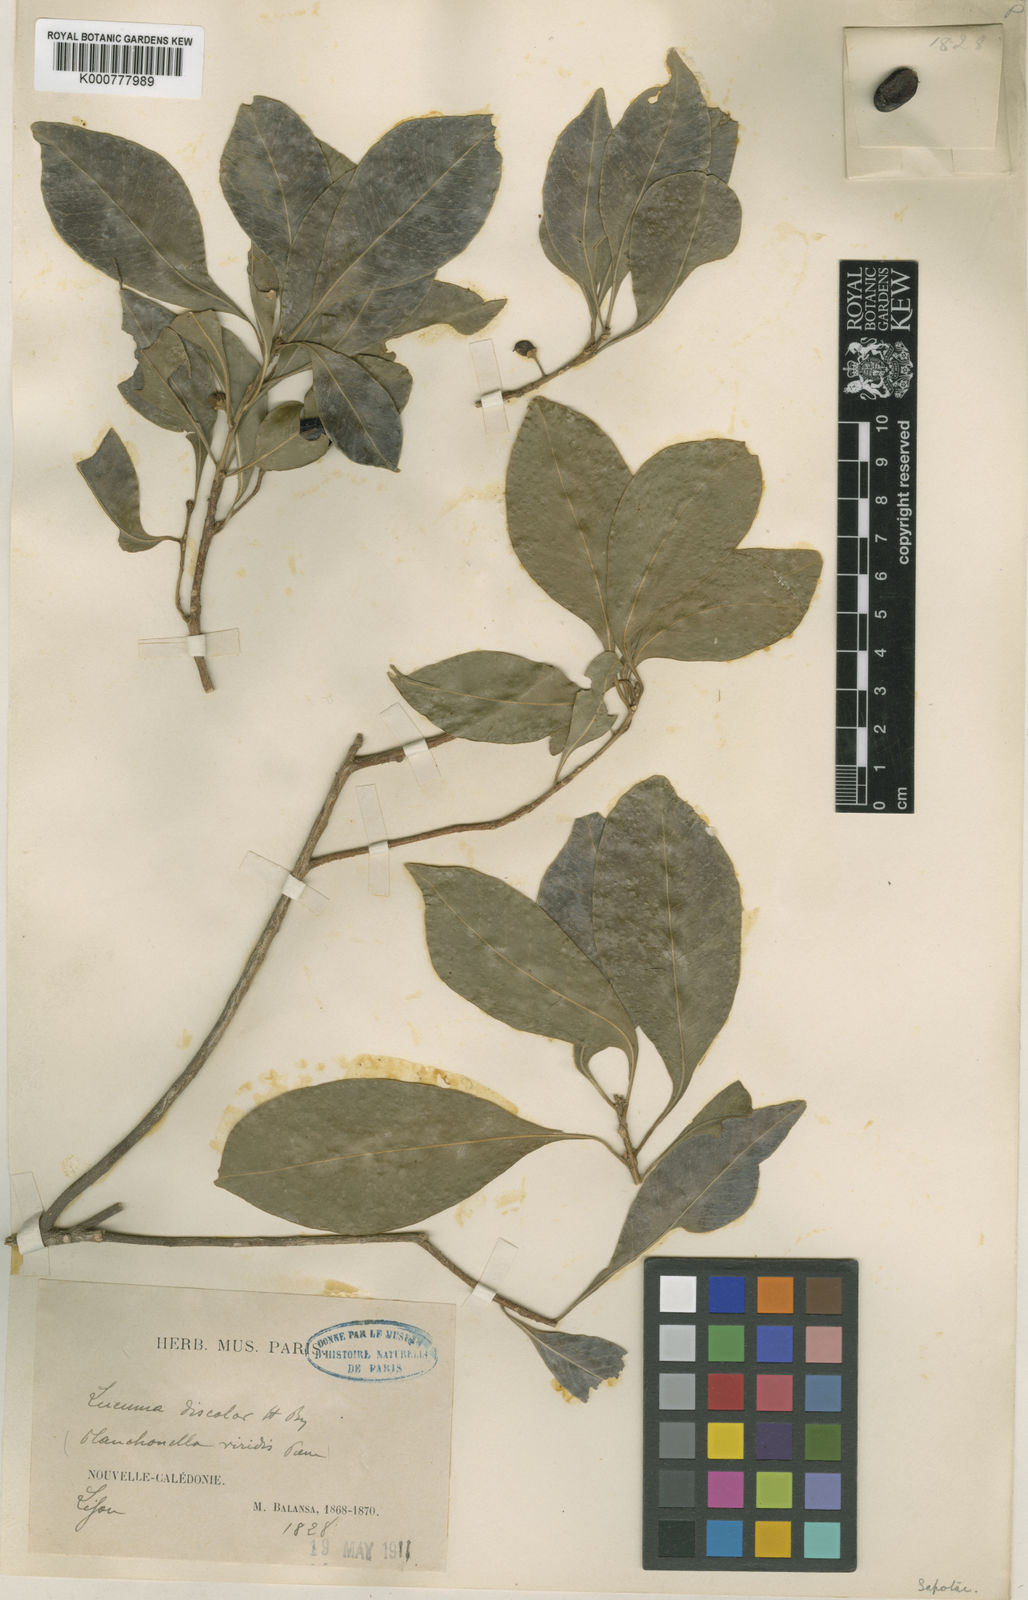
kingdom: Plantae
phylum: Tracheophyta
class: Magnoliopsida
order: Ericales
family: Sapotaceae
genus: Planchonella
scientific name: Planchonella chartacea
